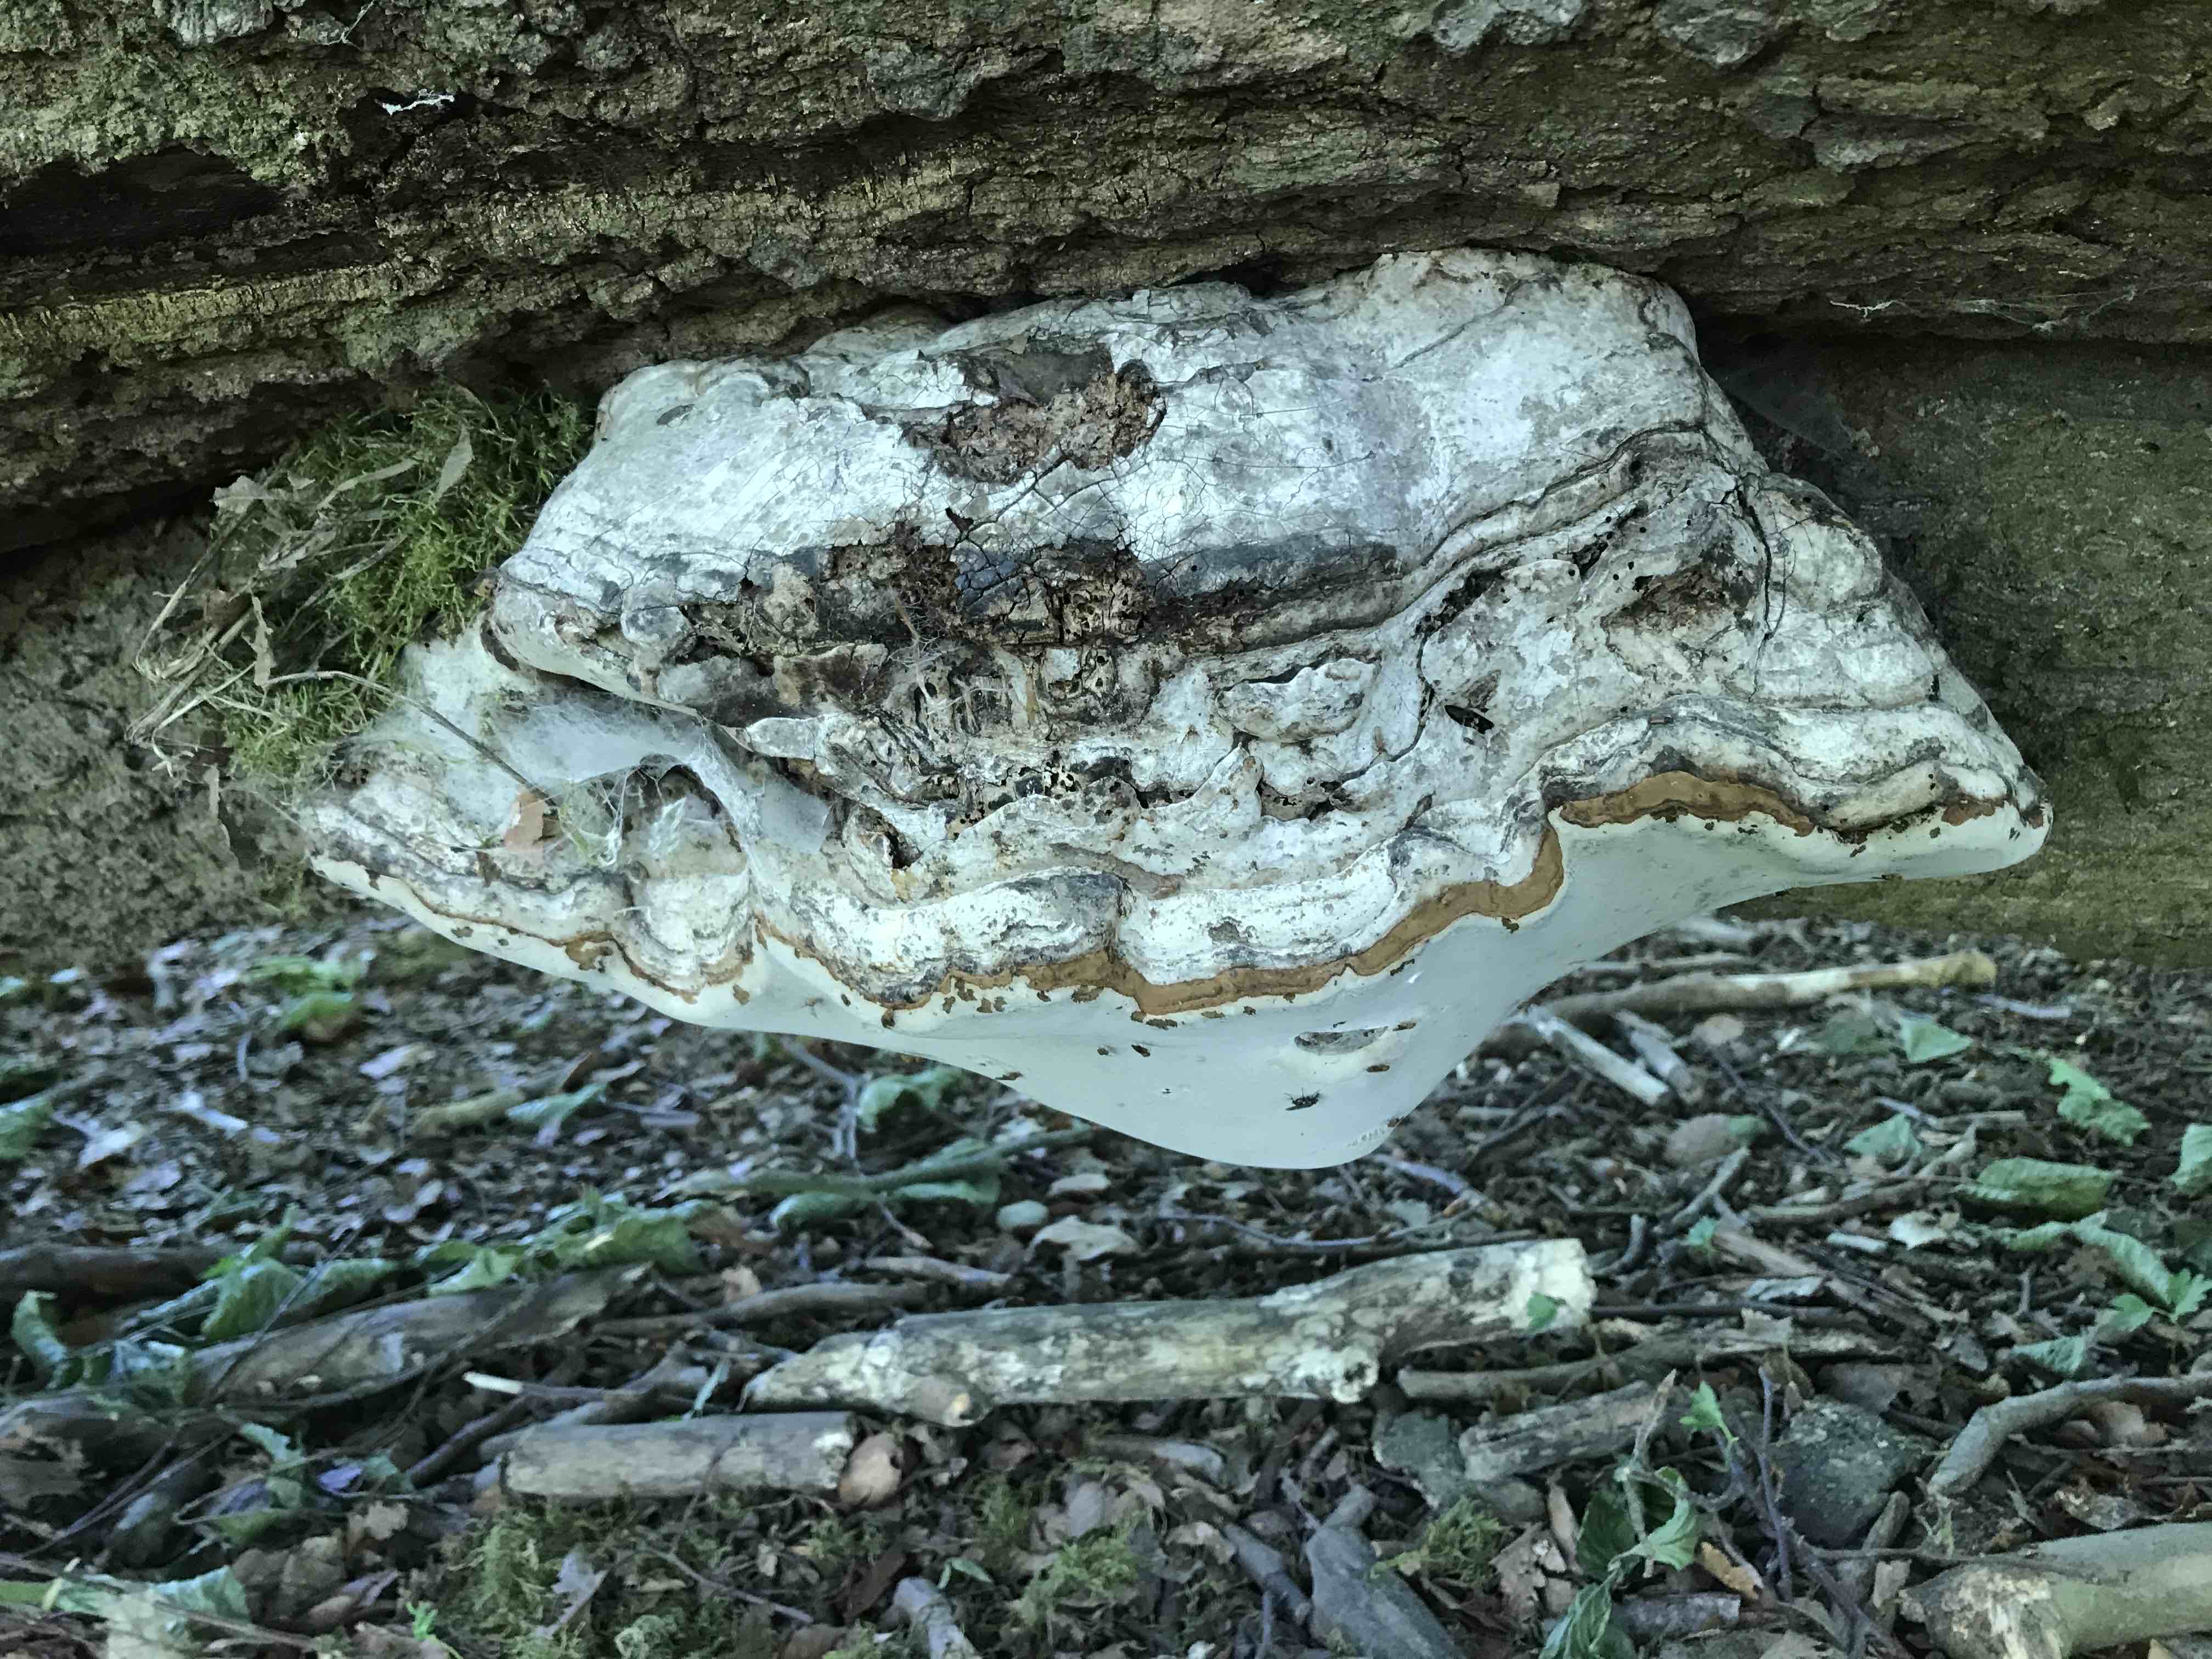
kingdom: Fungi
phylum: Basidiomycota
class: Agaricomycetes
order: Polyporales
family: Polyporaceae
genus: Fomes
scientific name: Fomes fomentarius
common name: tøndersvamp
